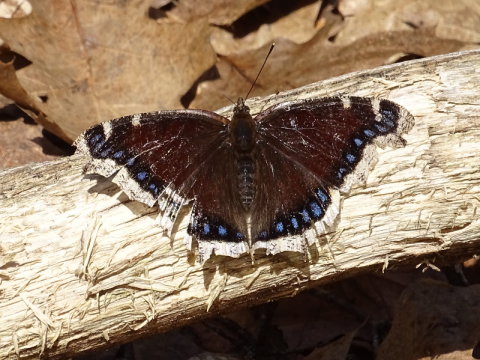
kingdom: Animalia
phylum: Arthropoda
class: Insecta
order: Lepidoptera
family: Nymphalidae
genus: Nymphalis
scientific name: Nymphalis antiopa
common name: Mourning Cloak
